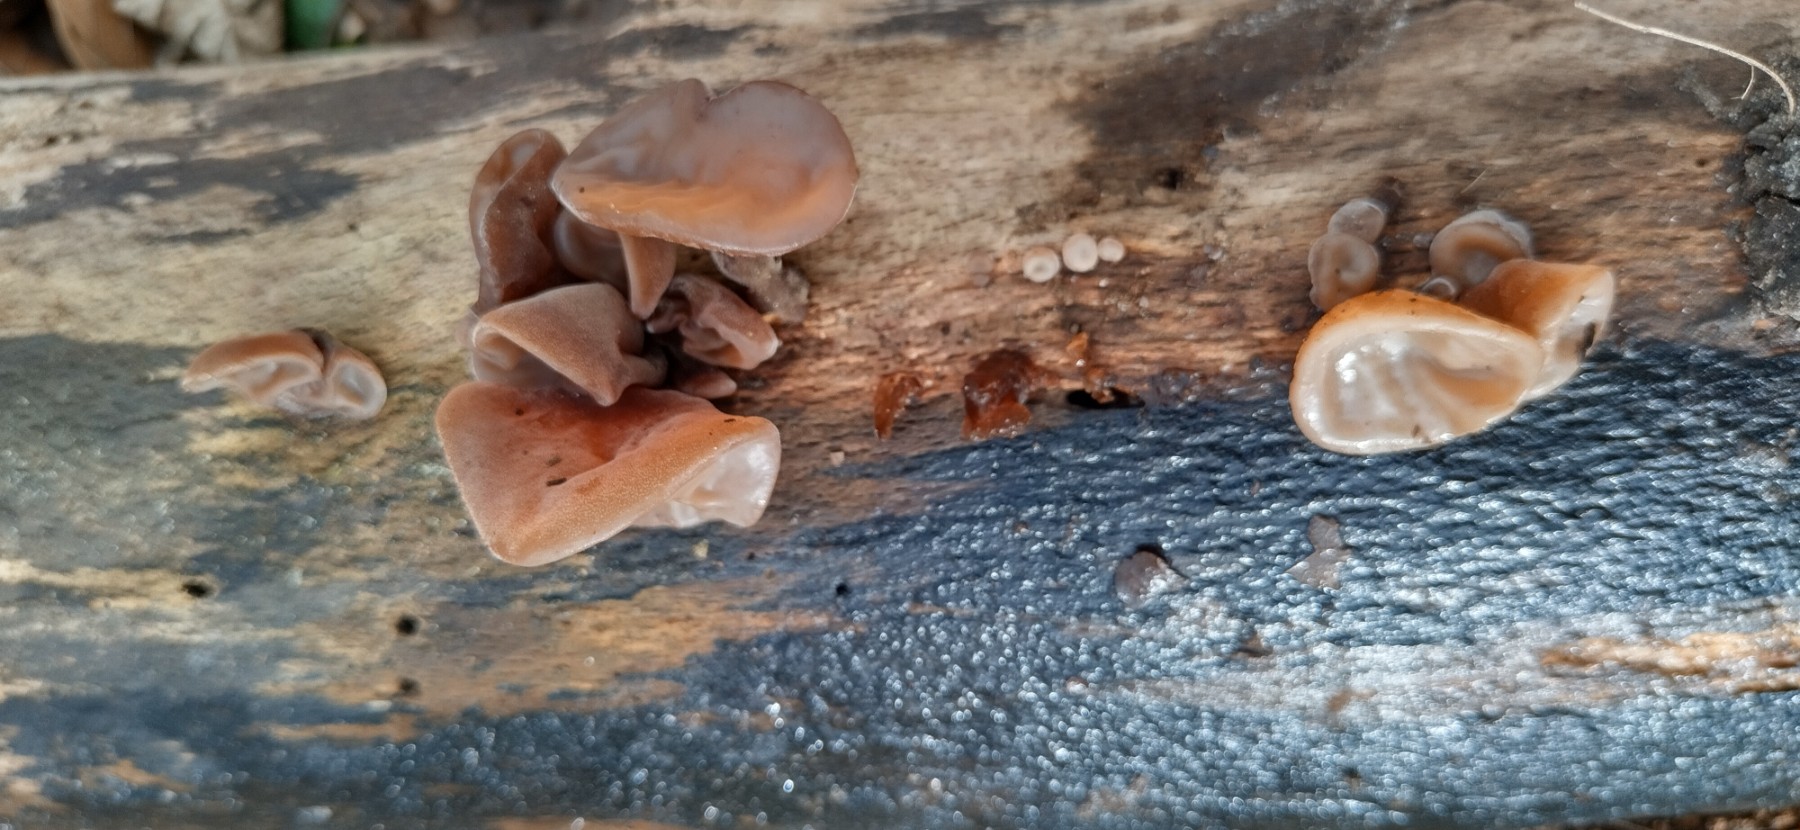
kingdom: Fungi
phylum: Basidiomycota
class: Agaricomycetes
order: Auriculariales
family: Auriculariaceae
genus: Auricularia
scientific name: Auricularia auricula-judae
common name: almindelig judasøre
